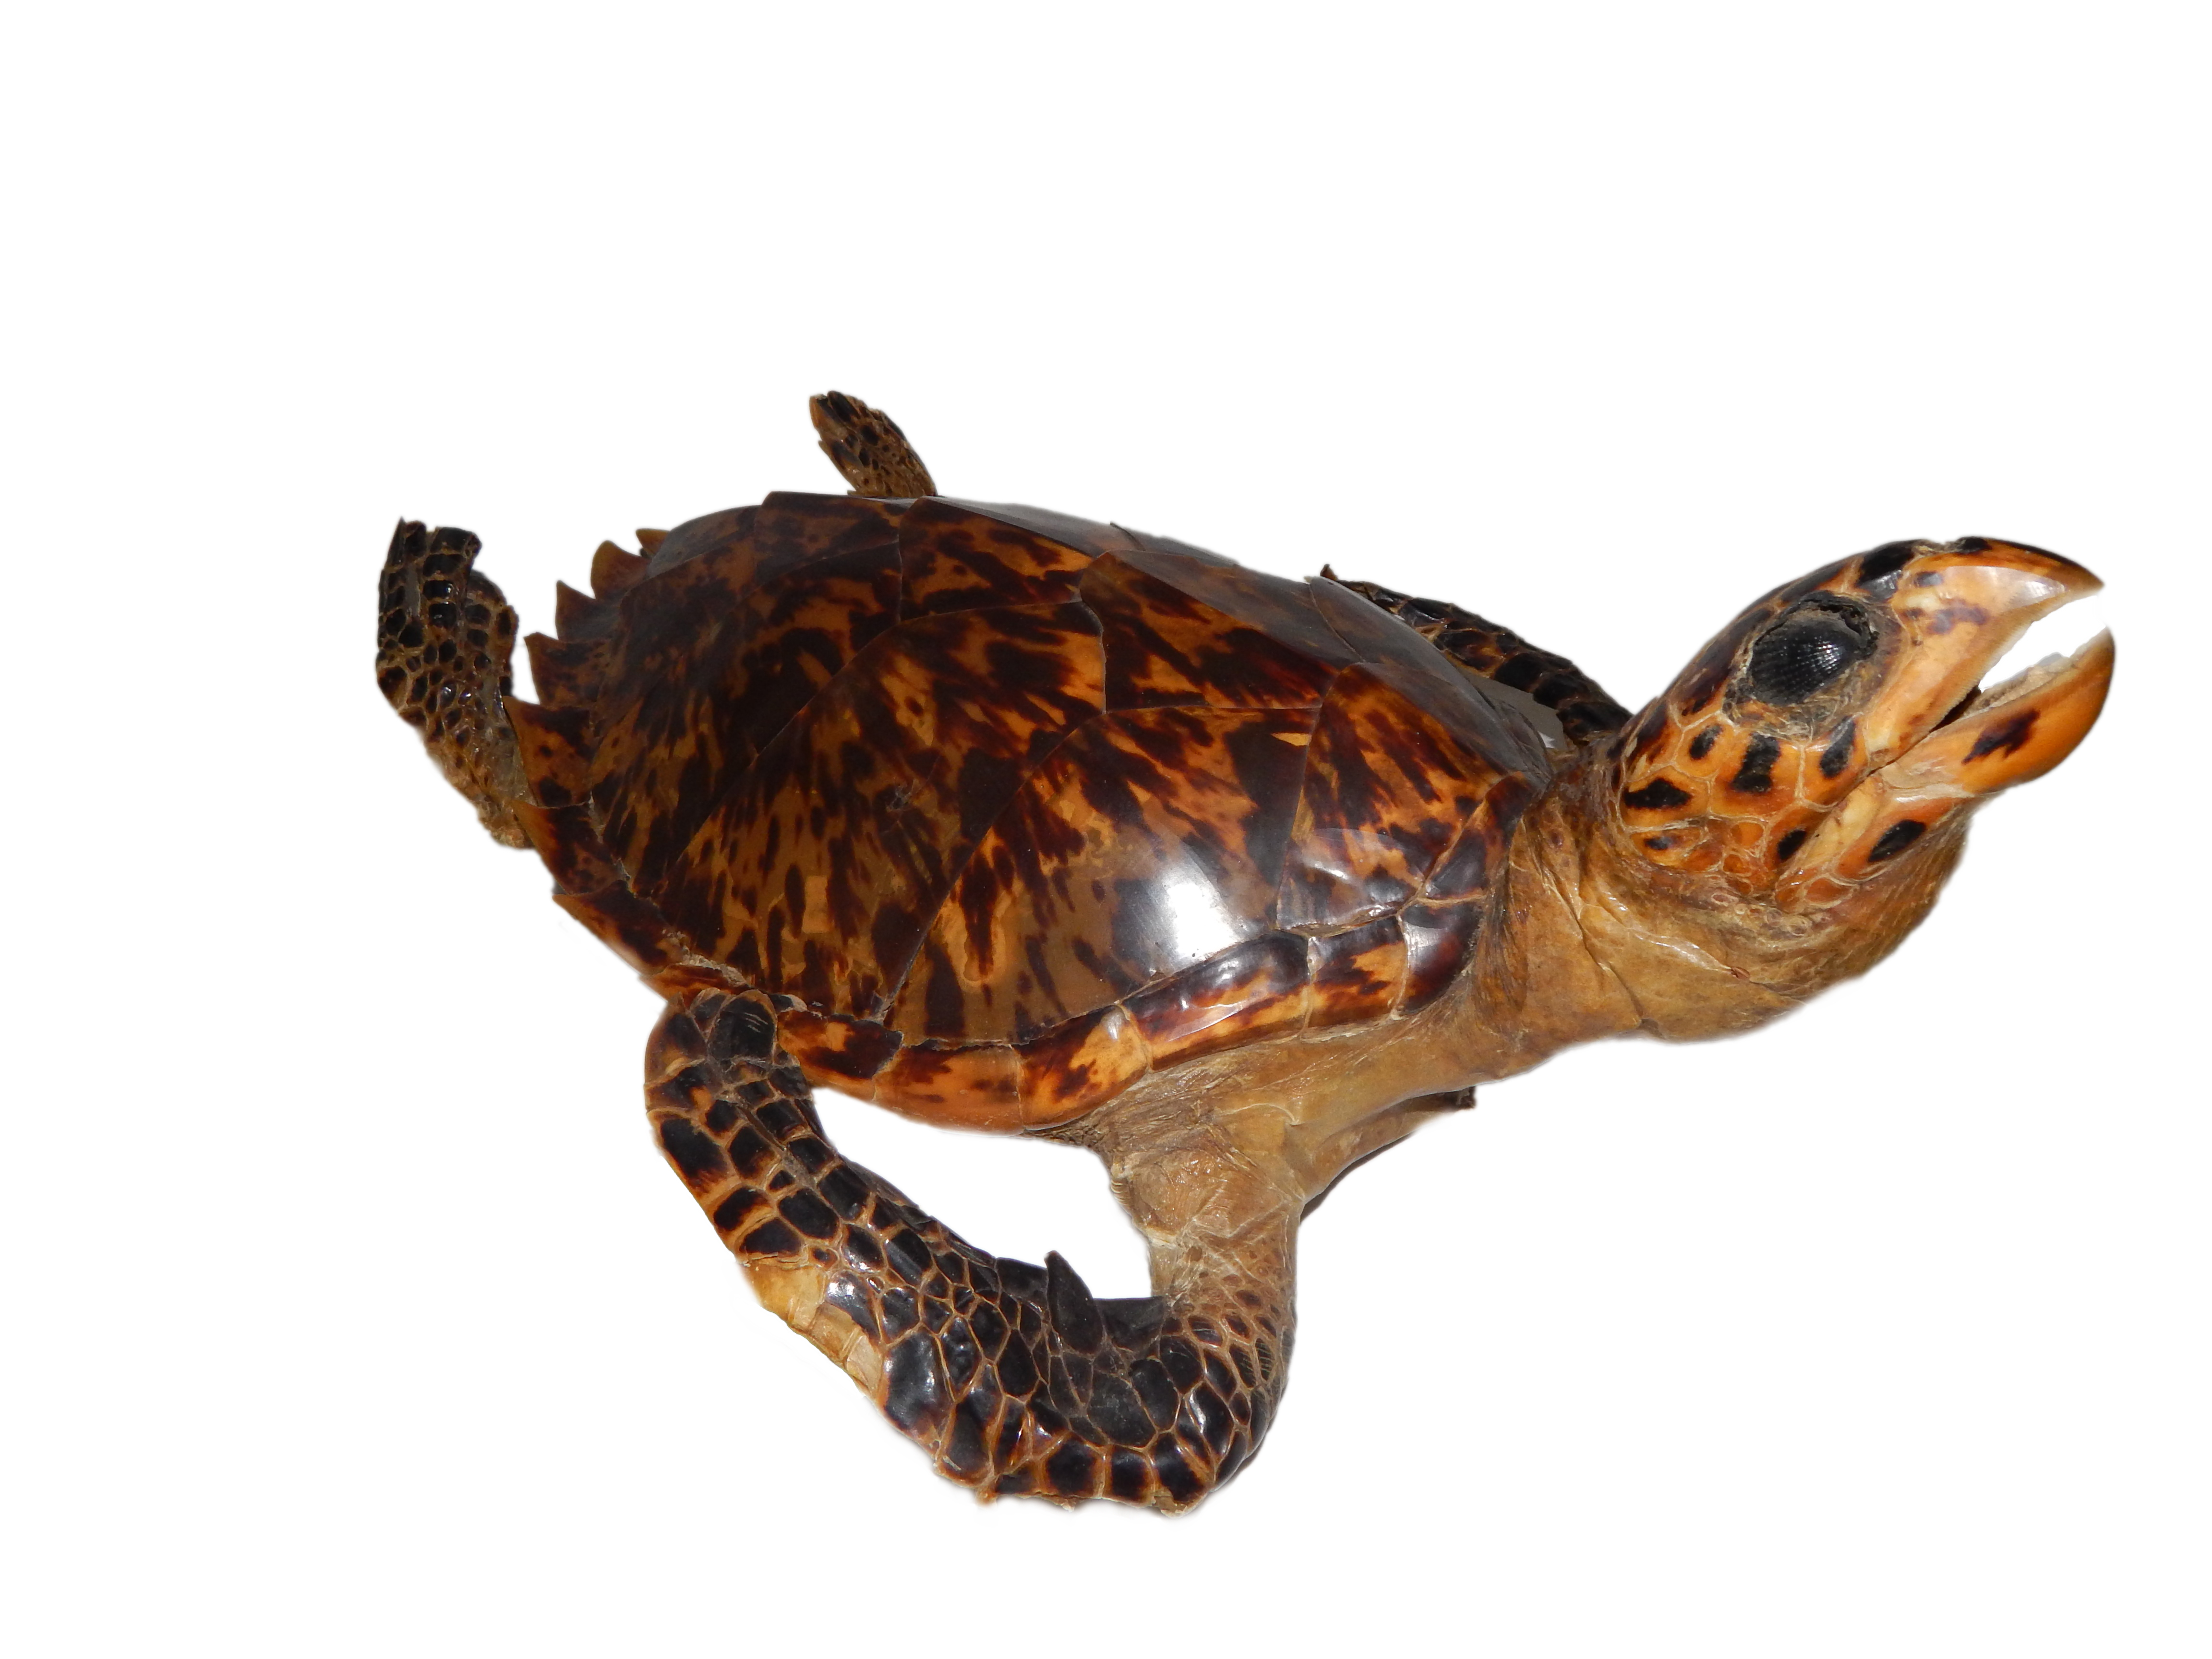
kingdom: Animalia
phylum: Chordata
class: Testudines
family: Cheloniidae
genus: Eretmochelys
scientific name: Eretmochelys imbricata
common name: Hawksbill turtle
